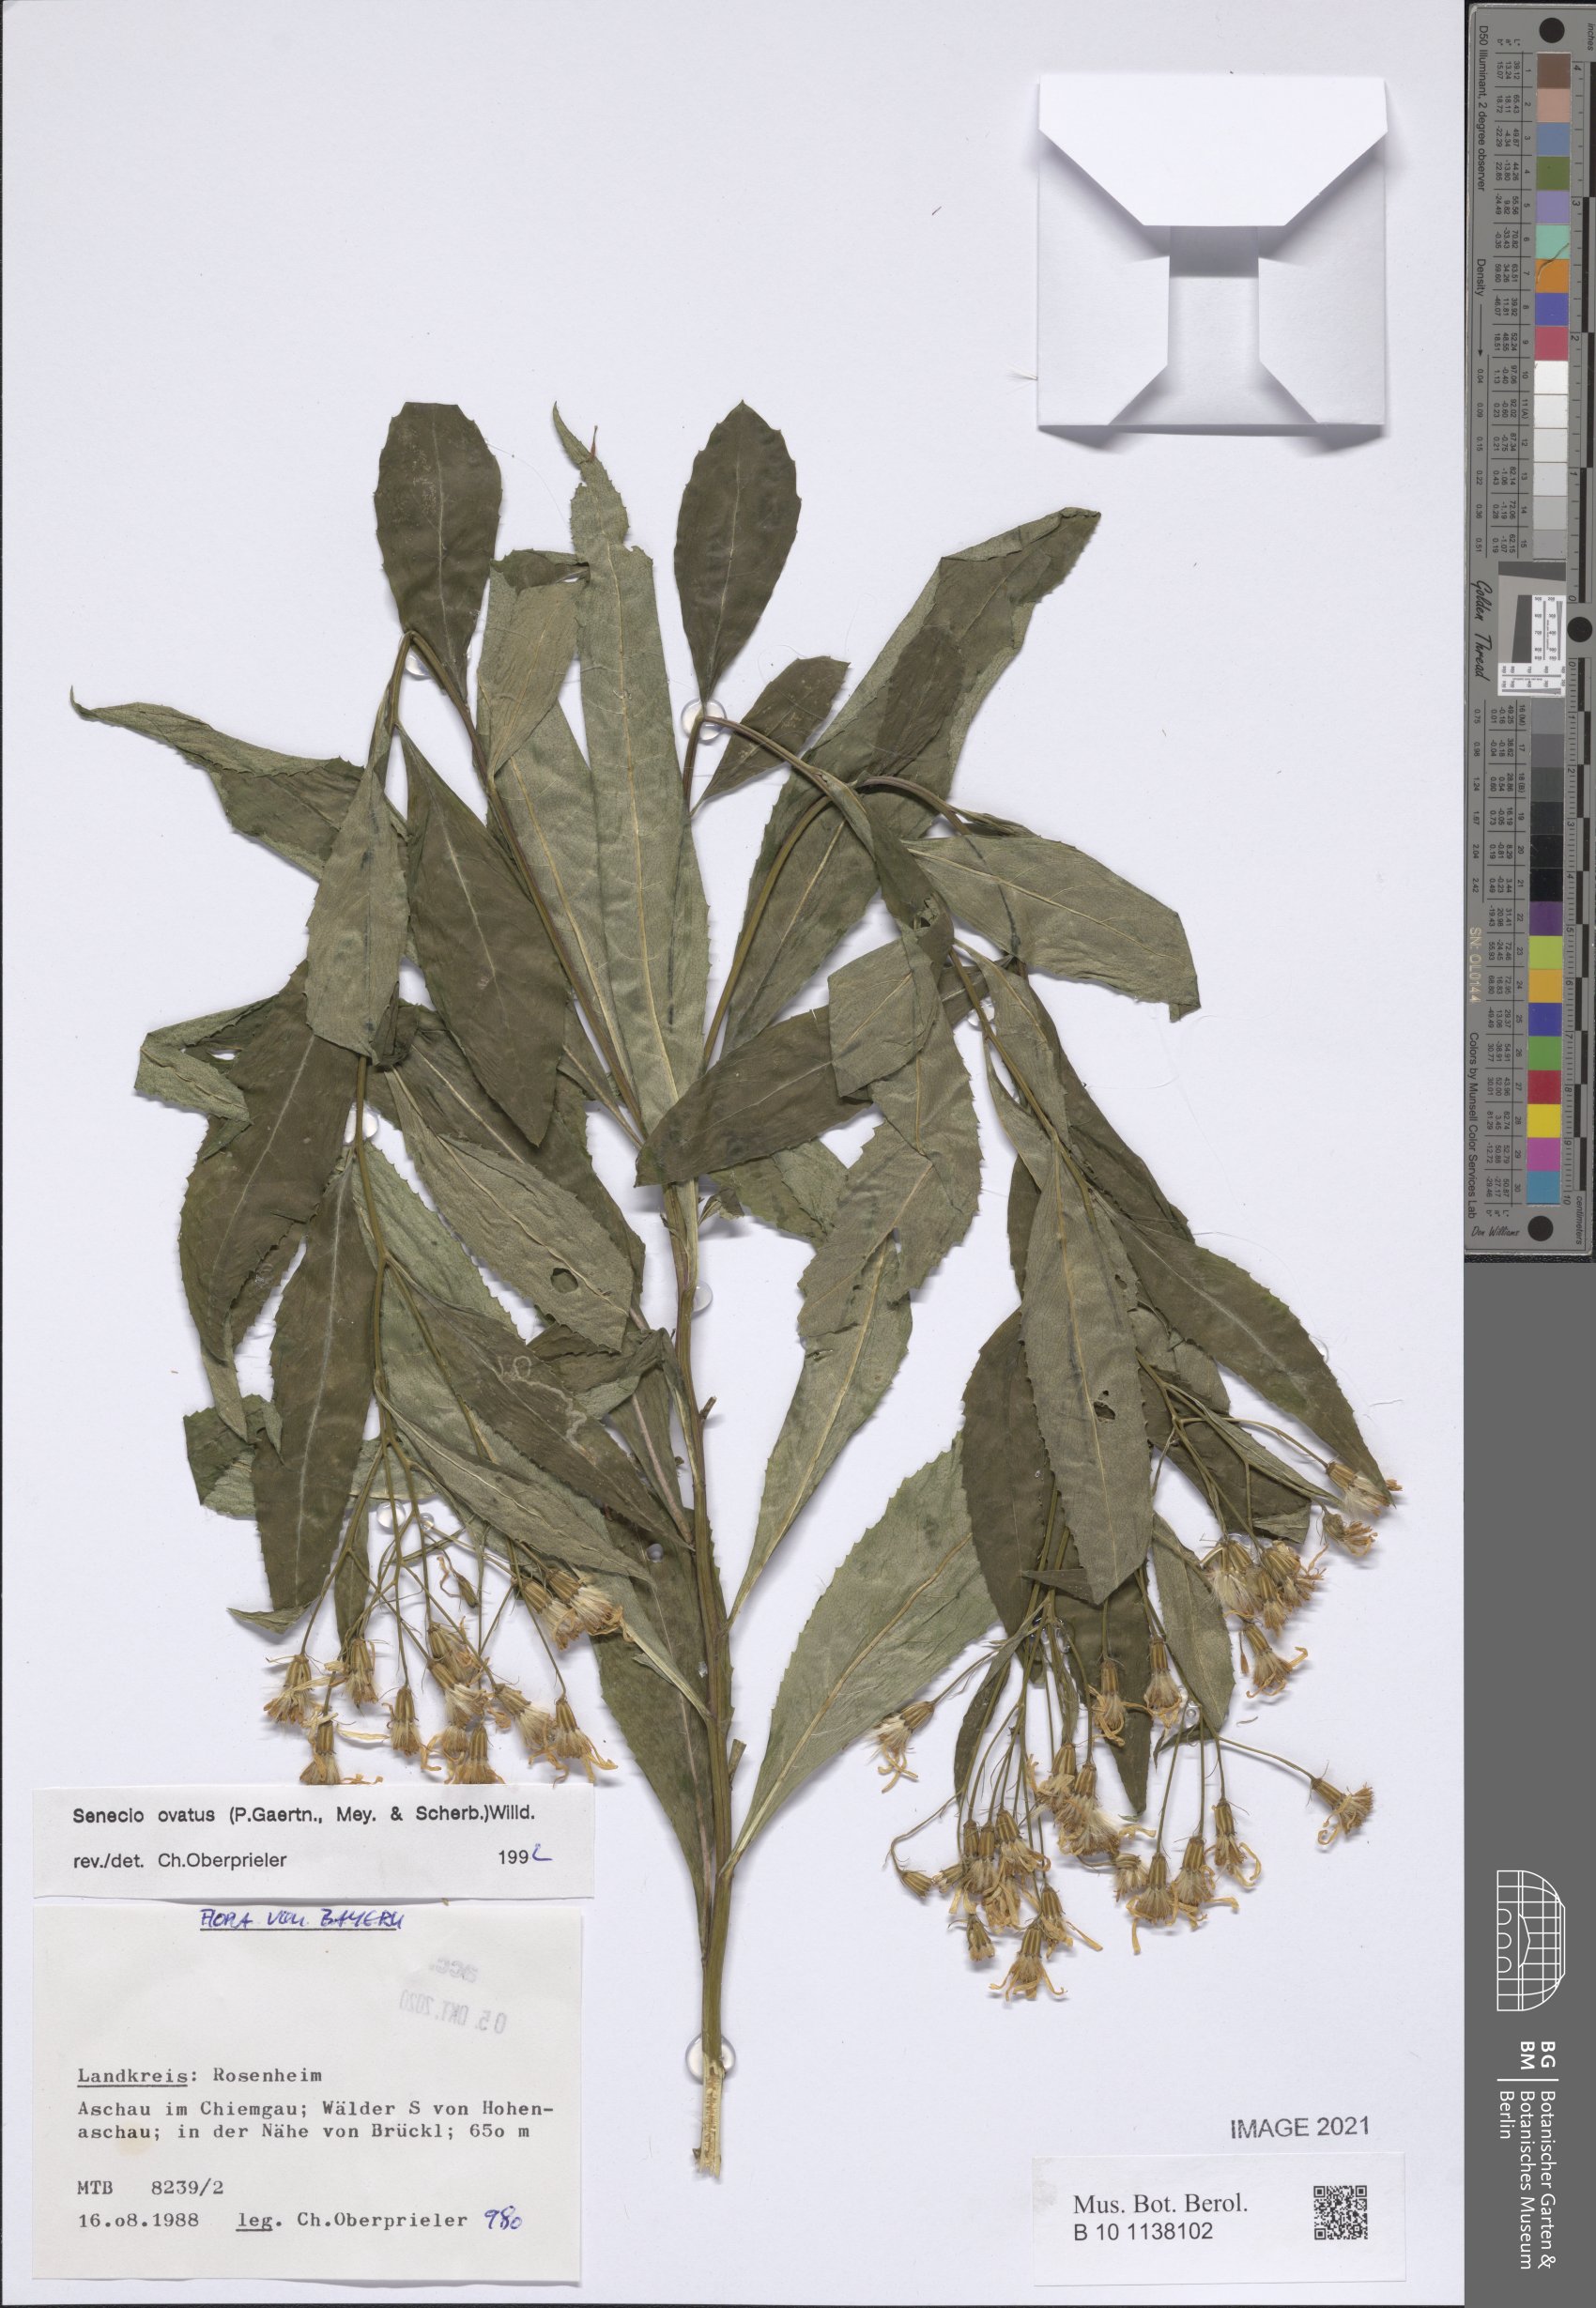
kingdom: Plantae
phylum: Tracheophyta
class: Magnoliopsida
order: Asterales
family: Asteraceae
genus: Senecio
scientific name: Senecio ovatus
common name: Wood ragwort
